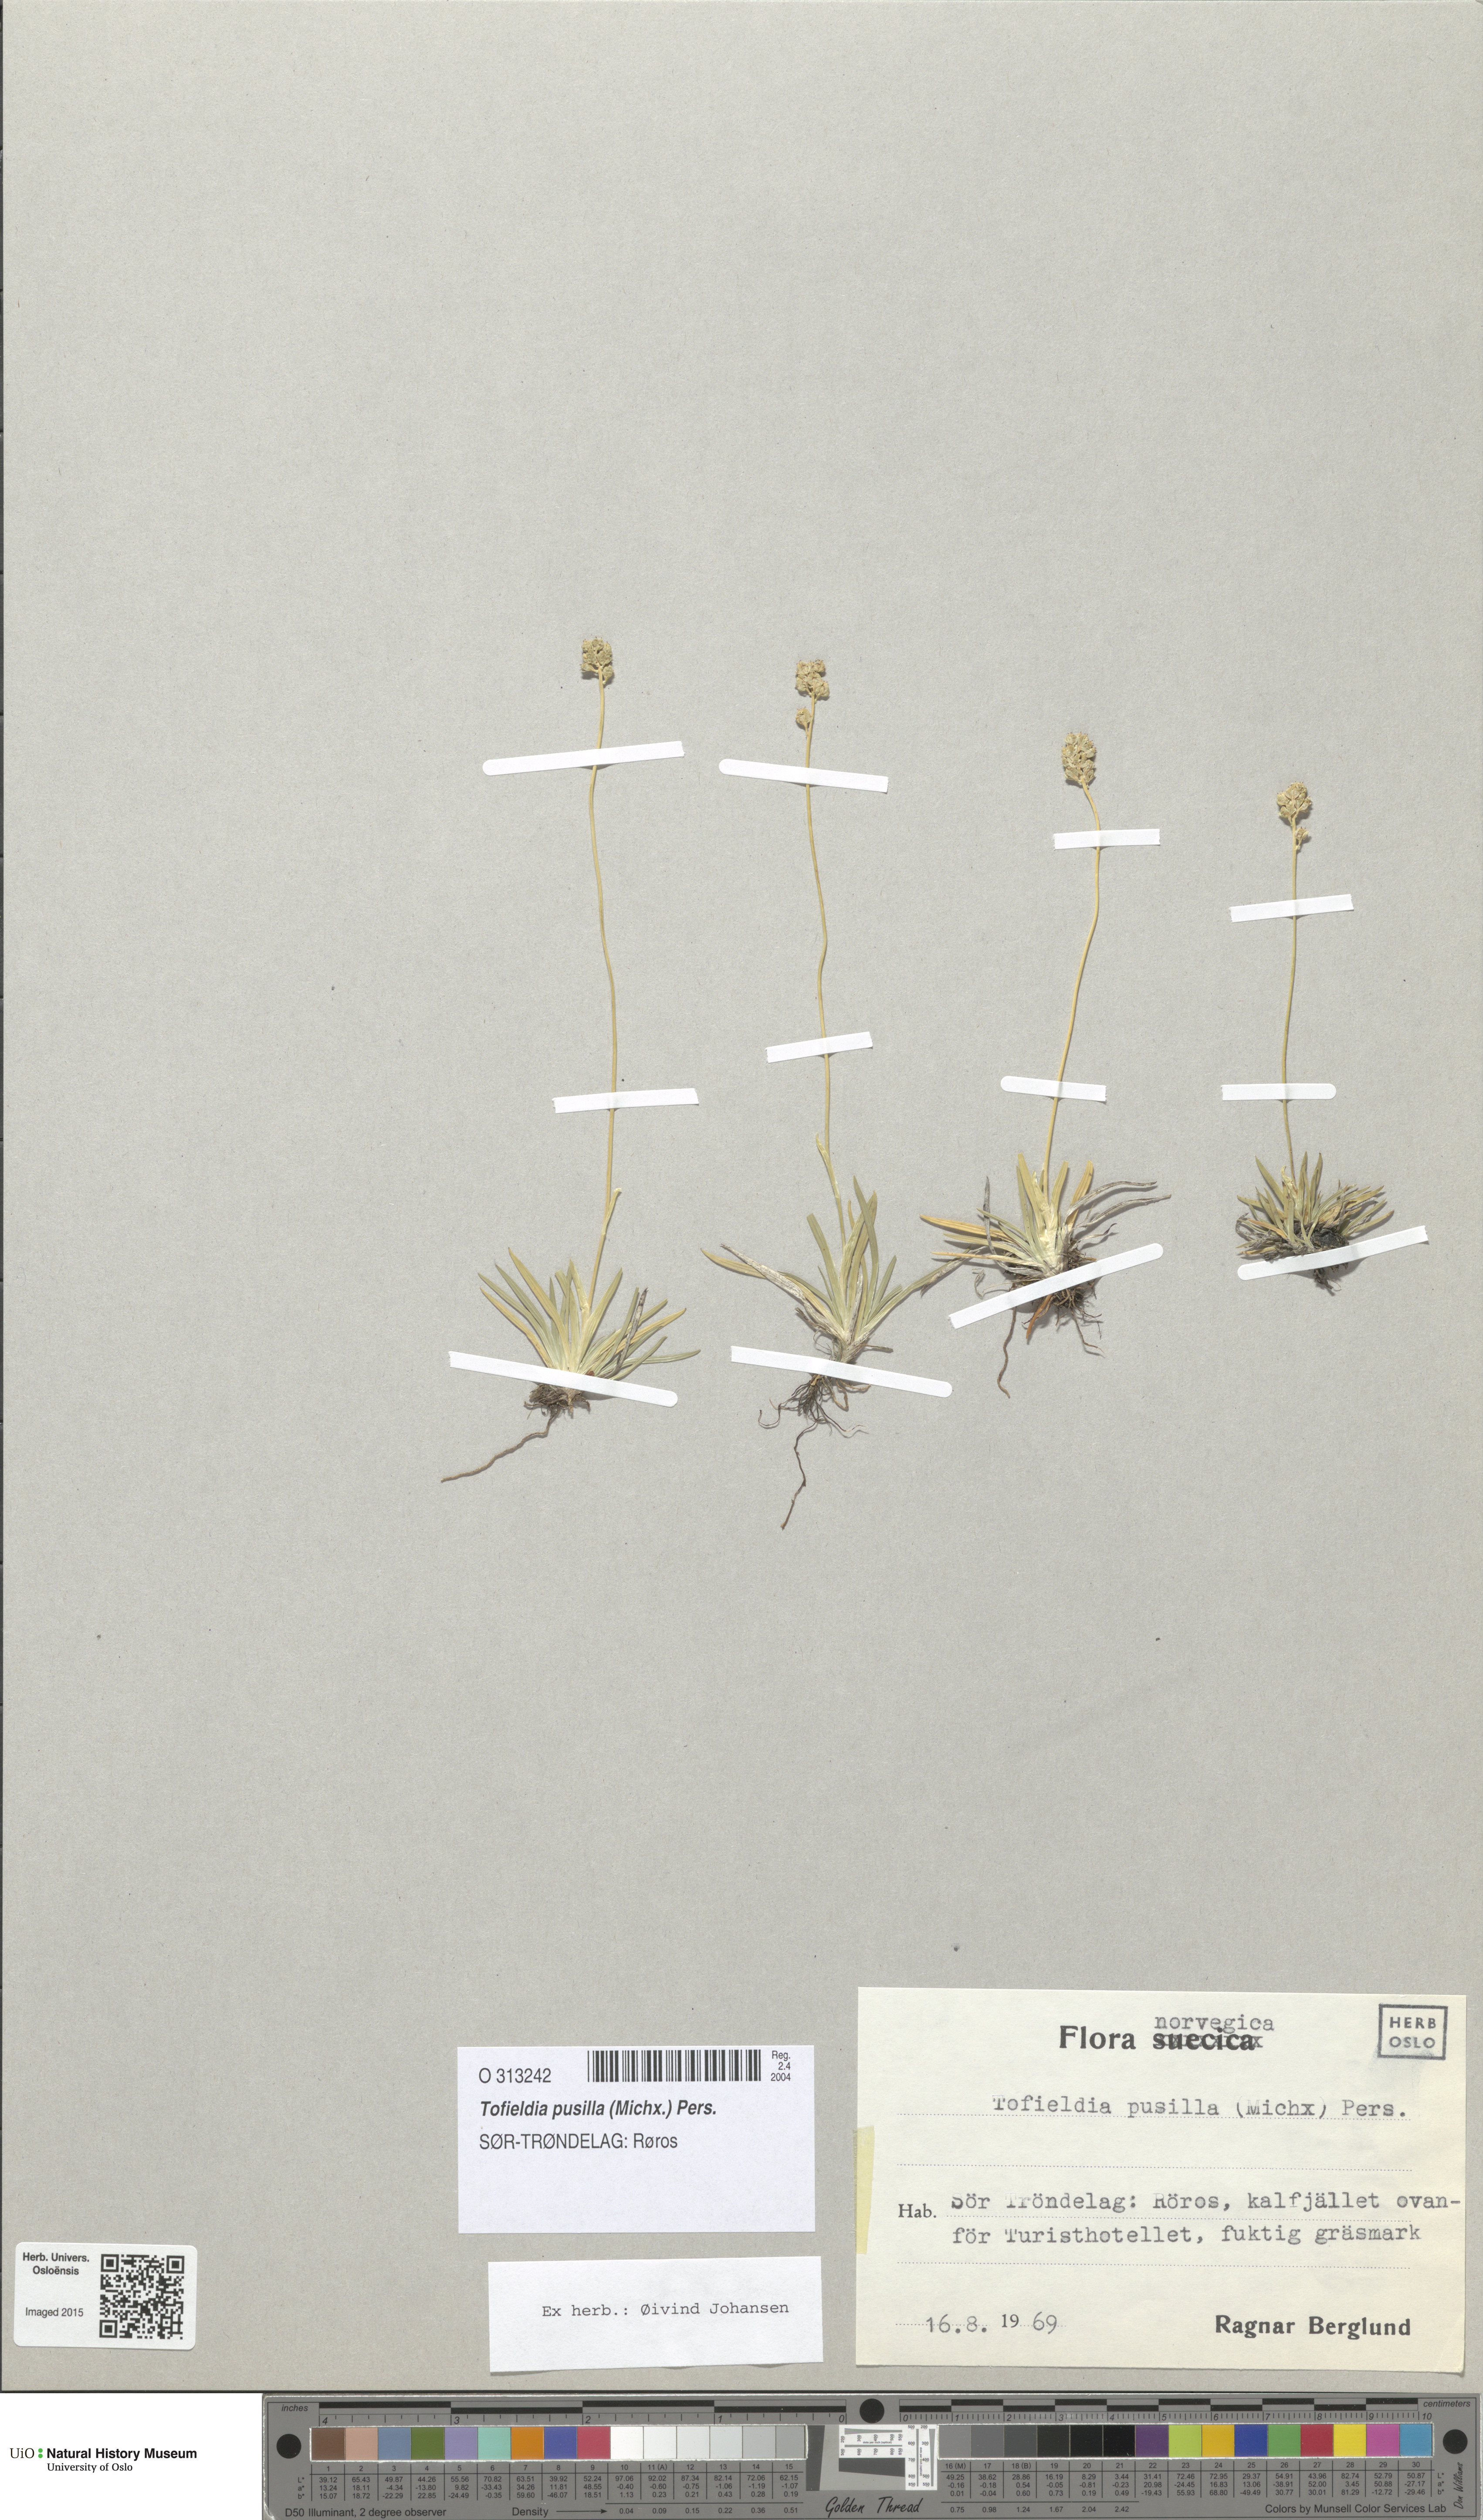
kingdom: Plantae
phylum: Tracheophyta
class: Liliopsida
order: Alismatales
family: Tofieldiaceae
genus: Tofieldia
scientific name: Tofieldia pusilla
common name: Scottish false asphodel
